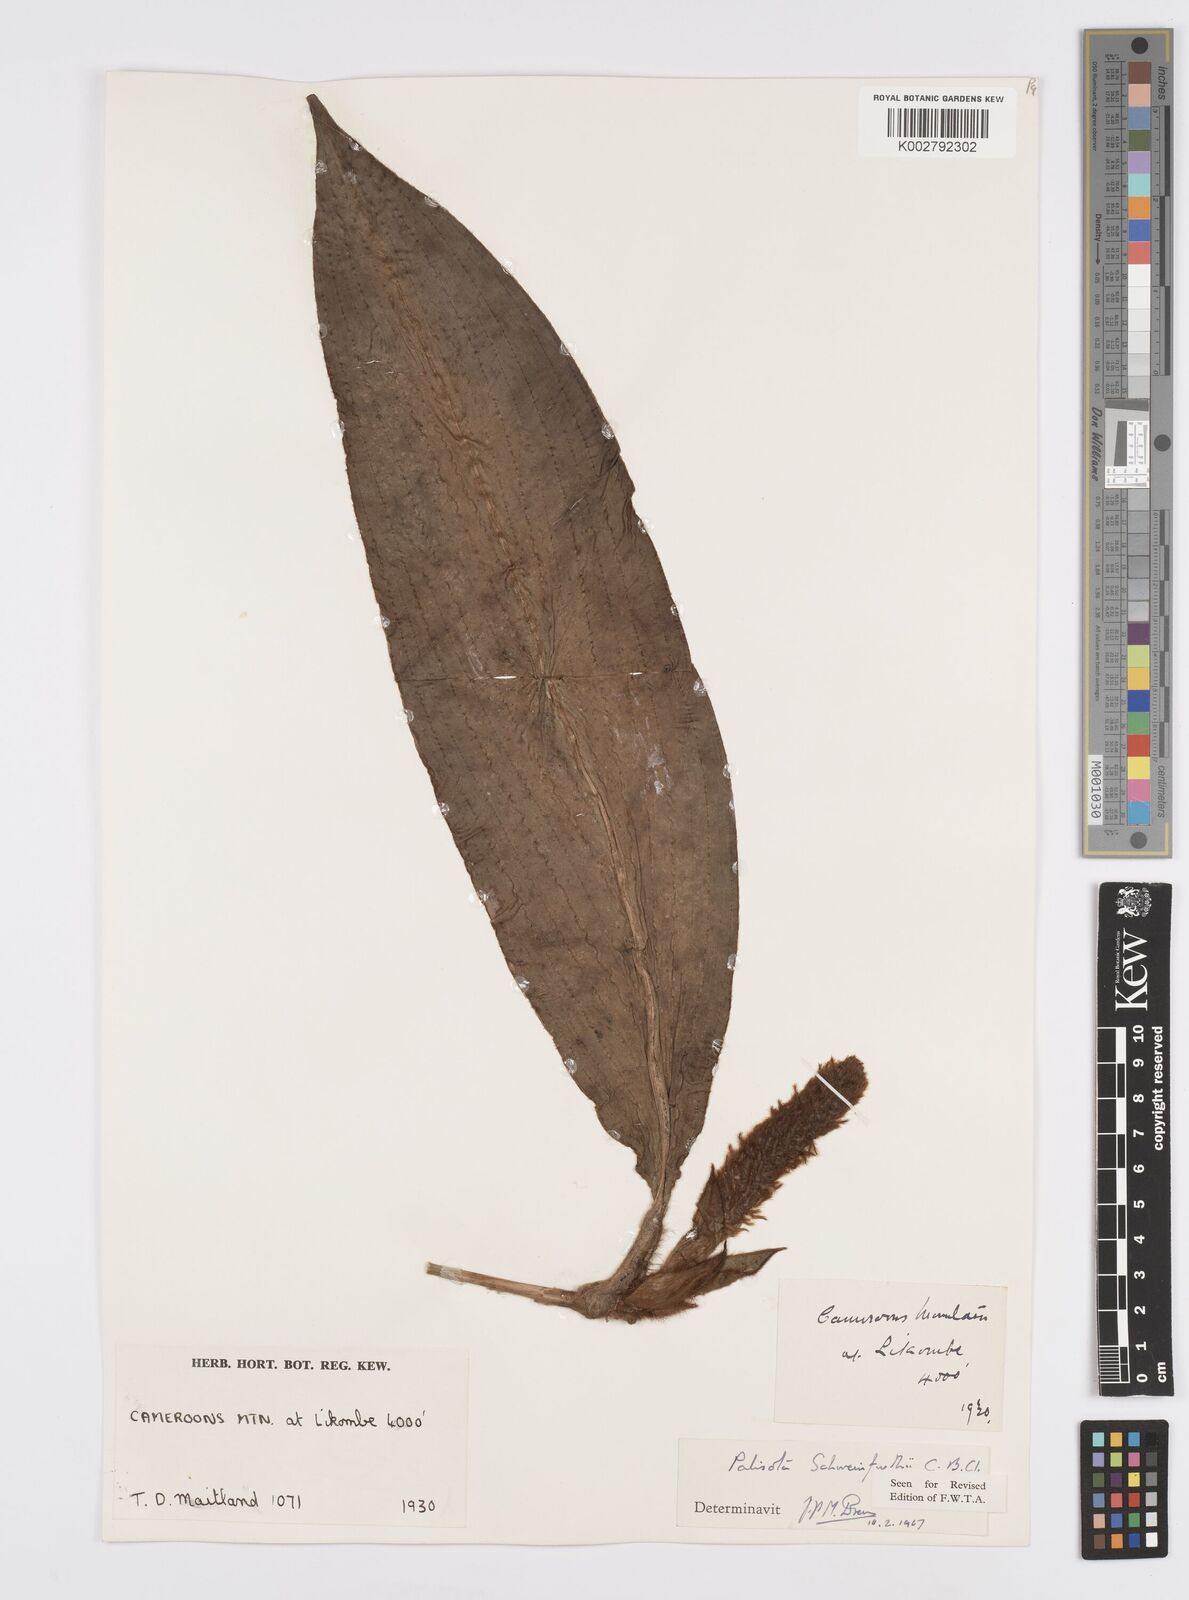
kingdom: Plantae
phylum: Tracheophyta
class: Liliopsida
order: Commelinales
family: Commelinaceae
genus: Palisota
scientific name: Palisota schweinfurthii
